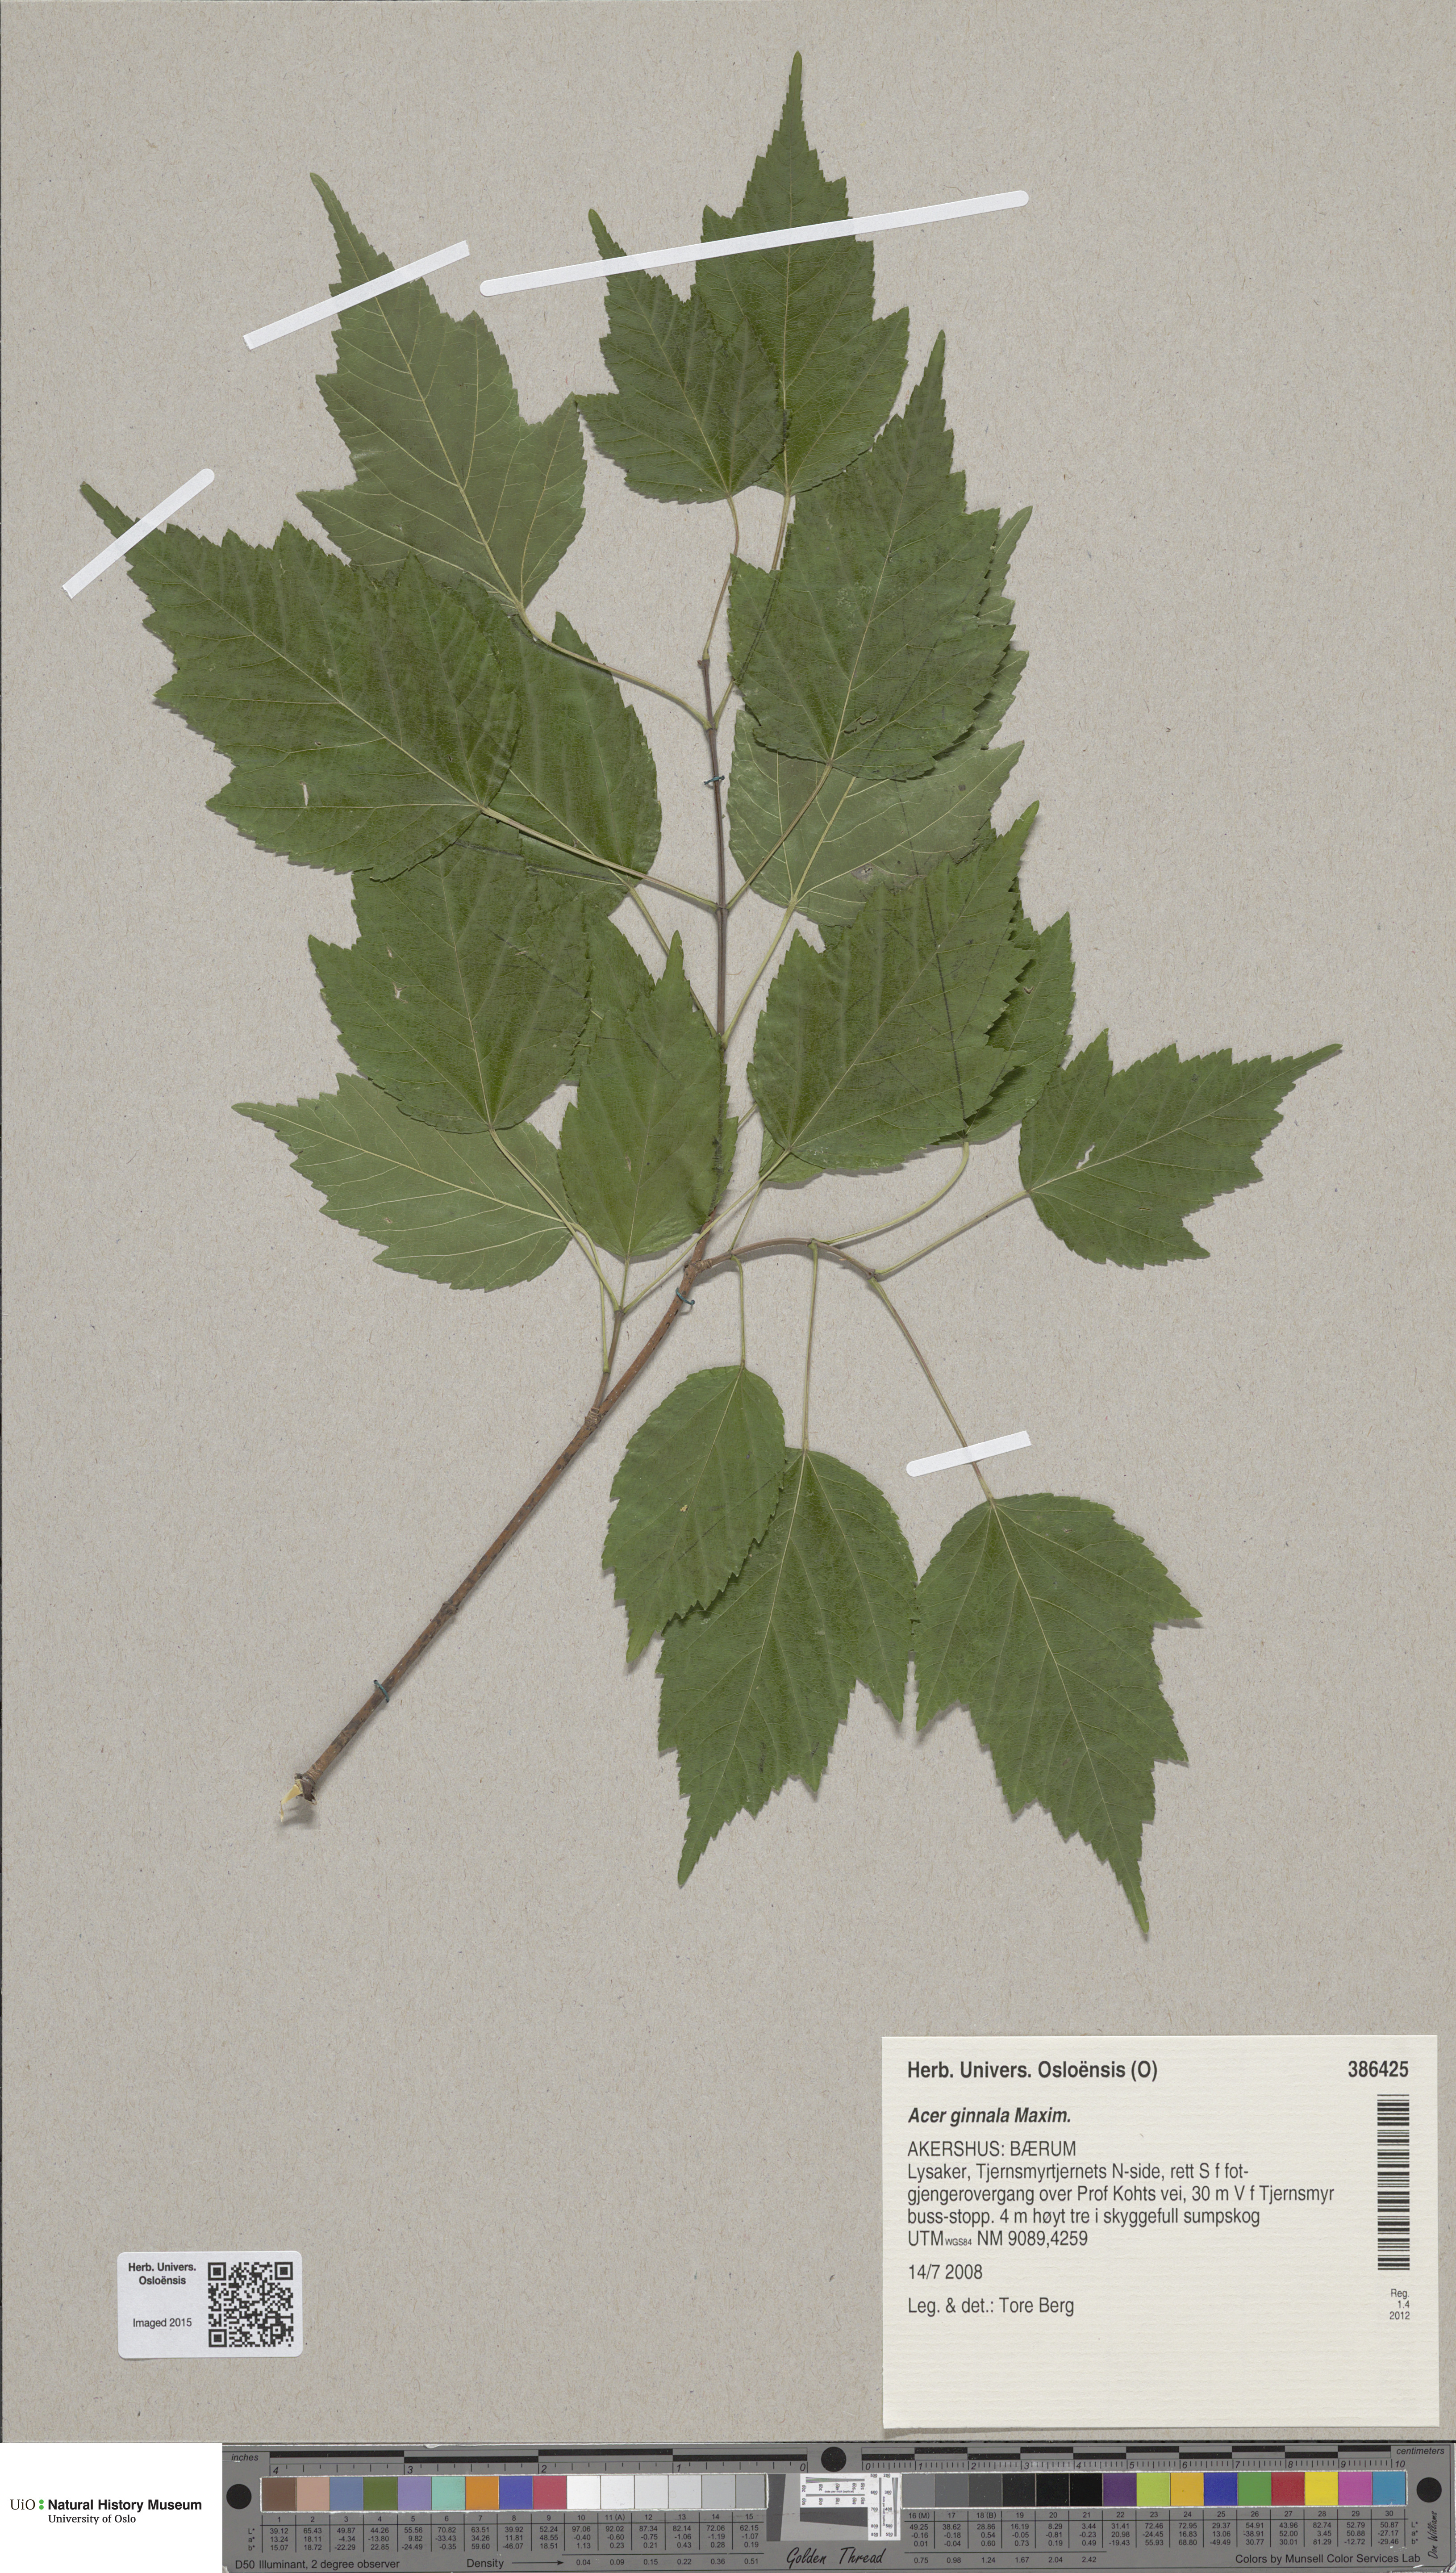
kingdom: Plantae
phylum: Tracheophyta
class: Magnoliopsida
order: Sapindales
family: Sapindaceae
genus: Acer
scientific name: Acer tataricum
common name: Tartar maple
